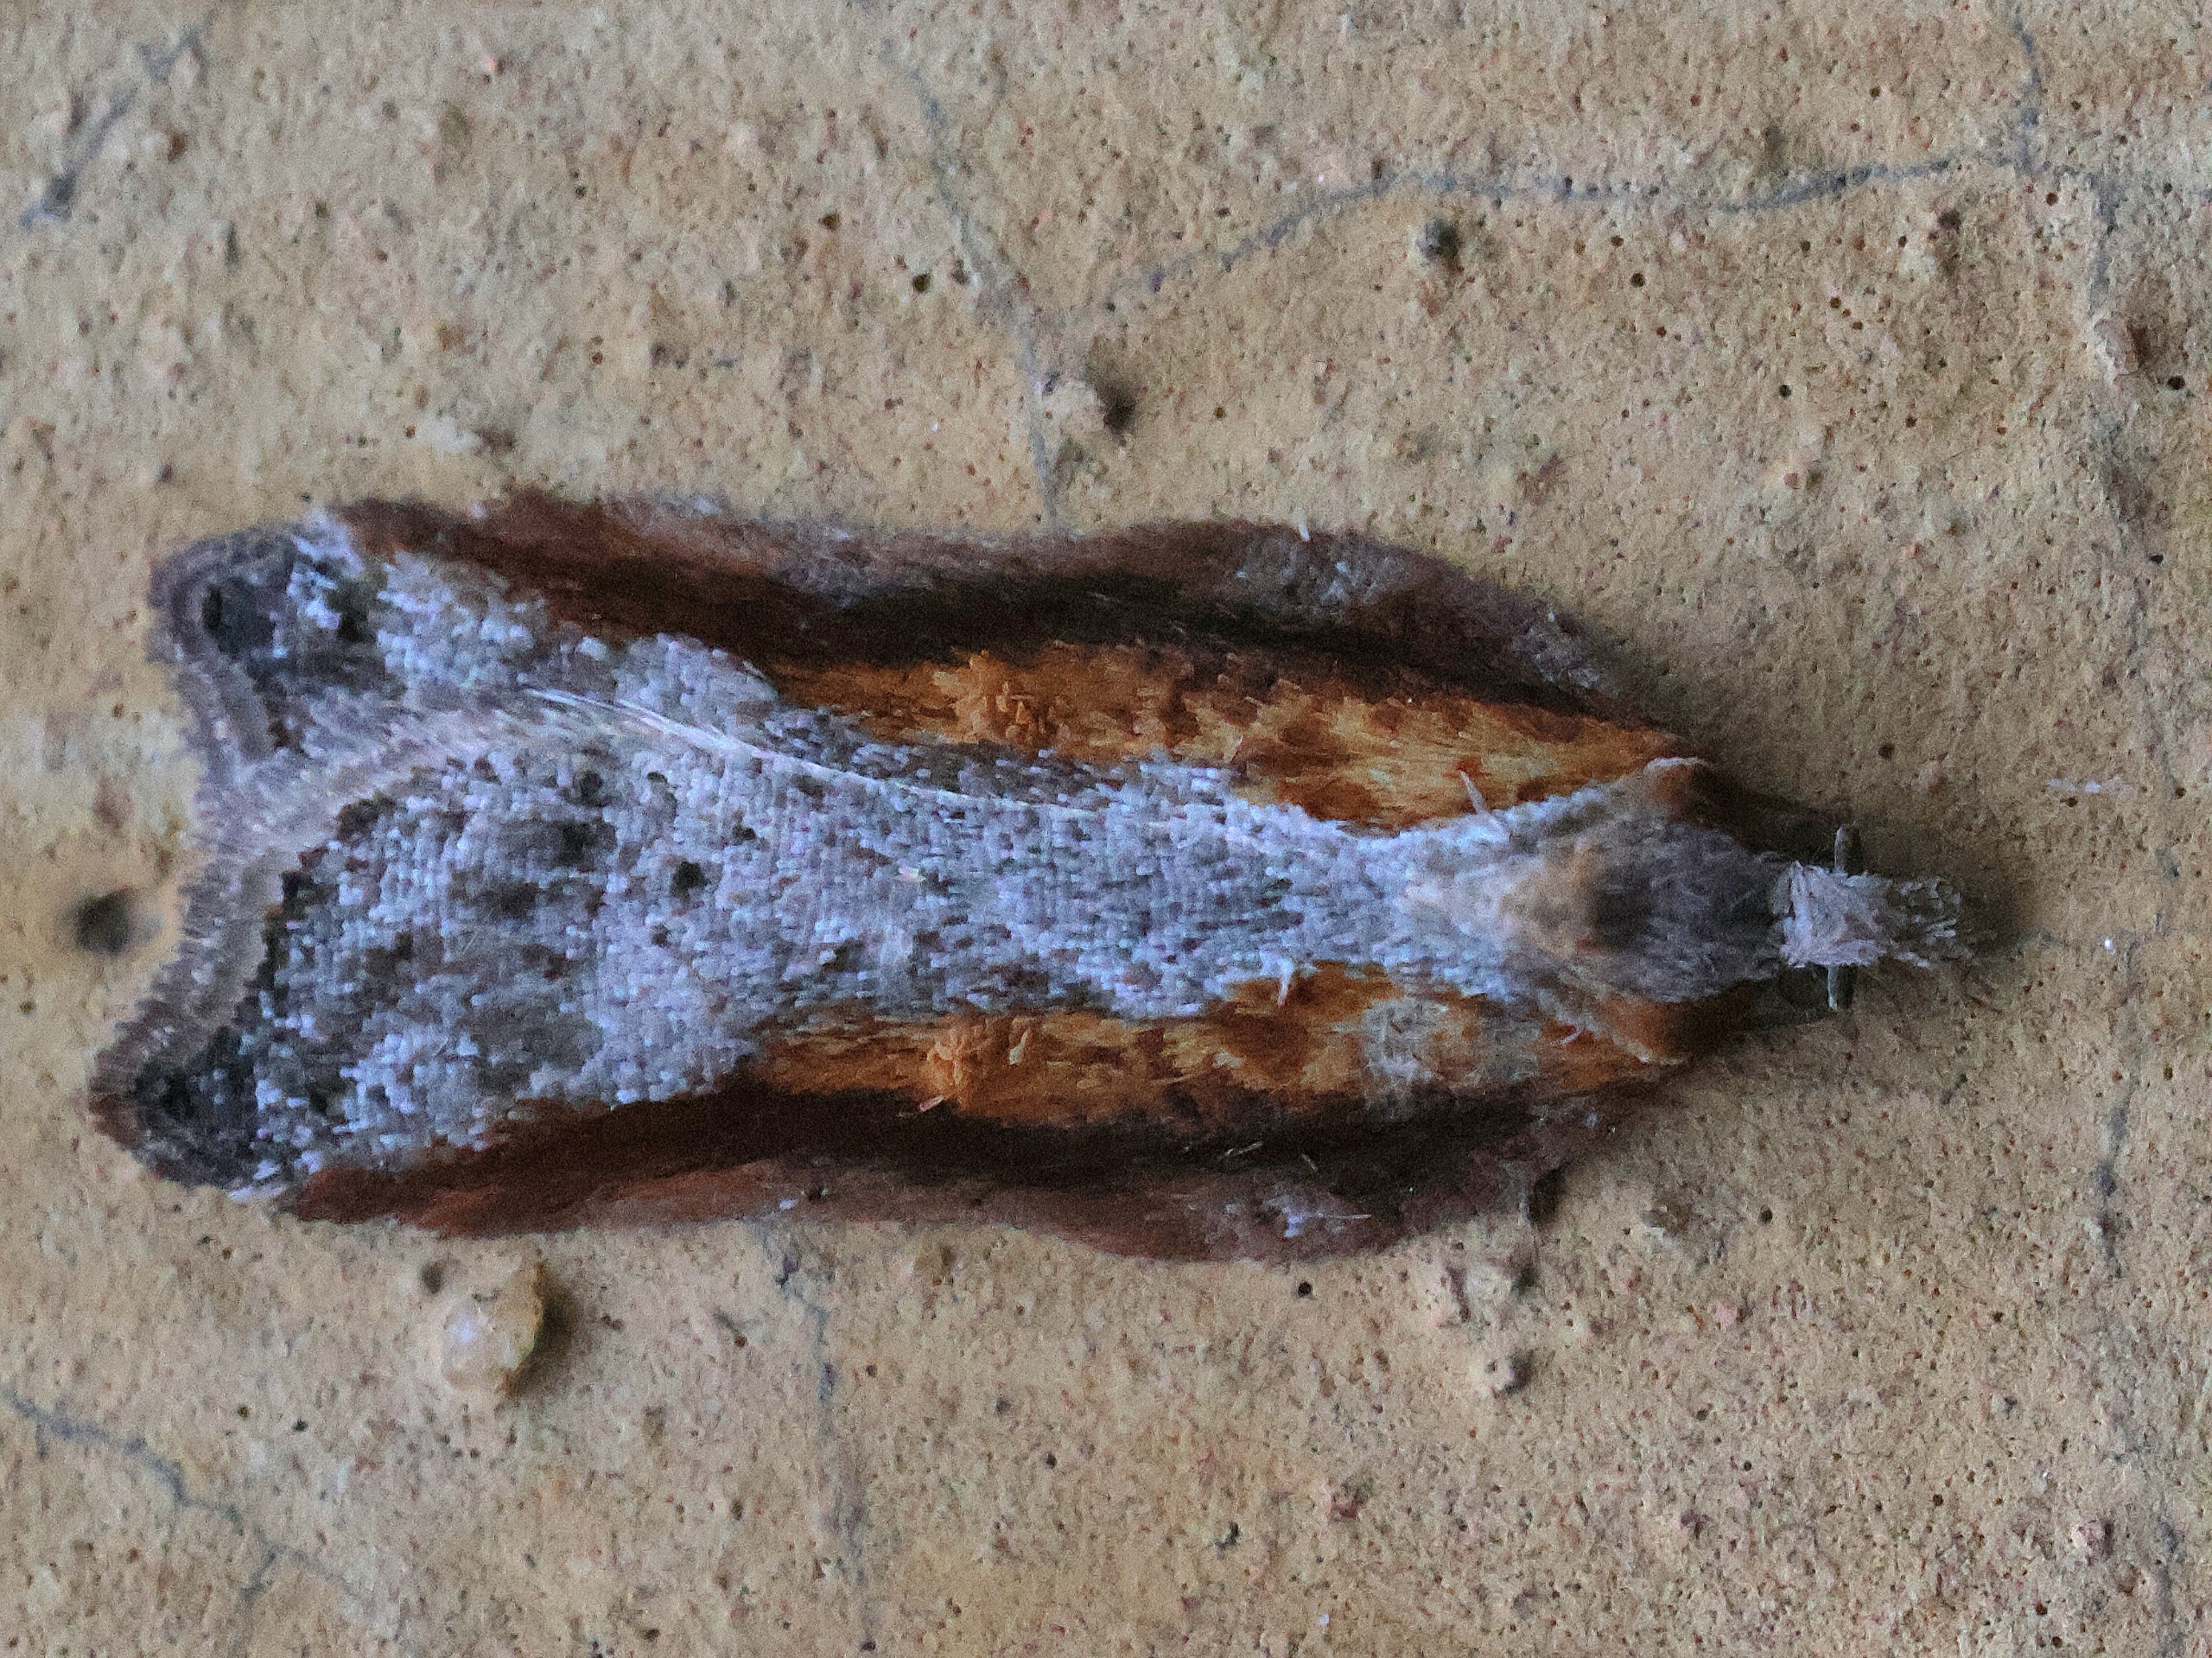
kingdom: Animalia
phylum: Arthropoda
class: Insecta
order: Lepidoptera
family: Tortricidae
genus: Acleris
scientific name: Acleris cristana
